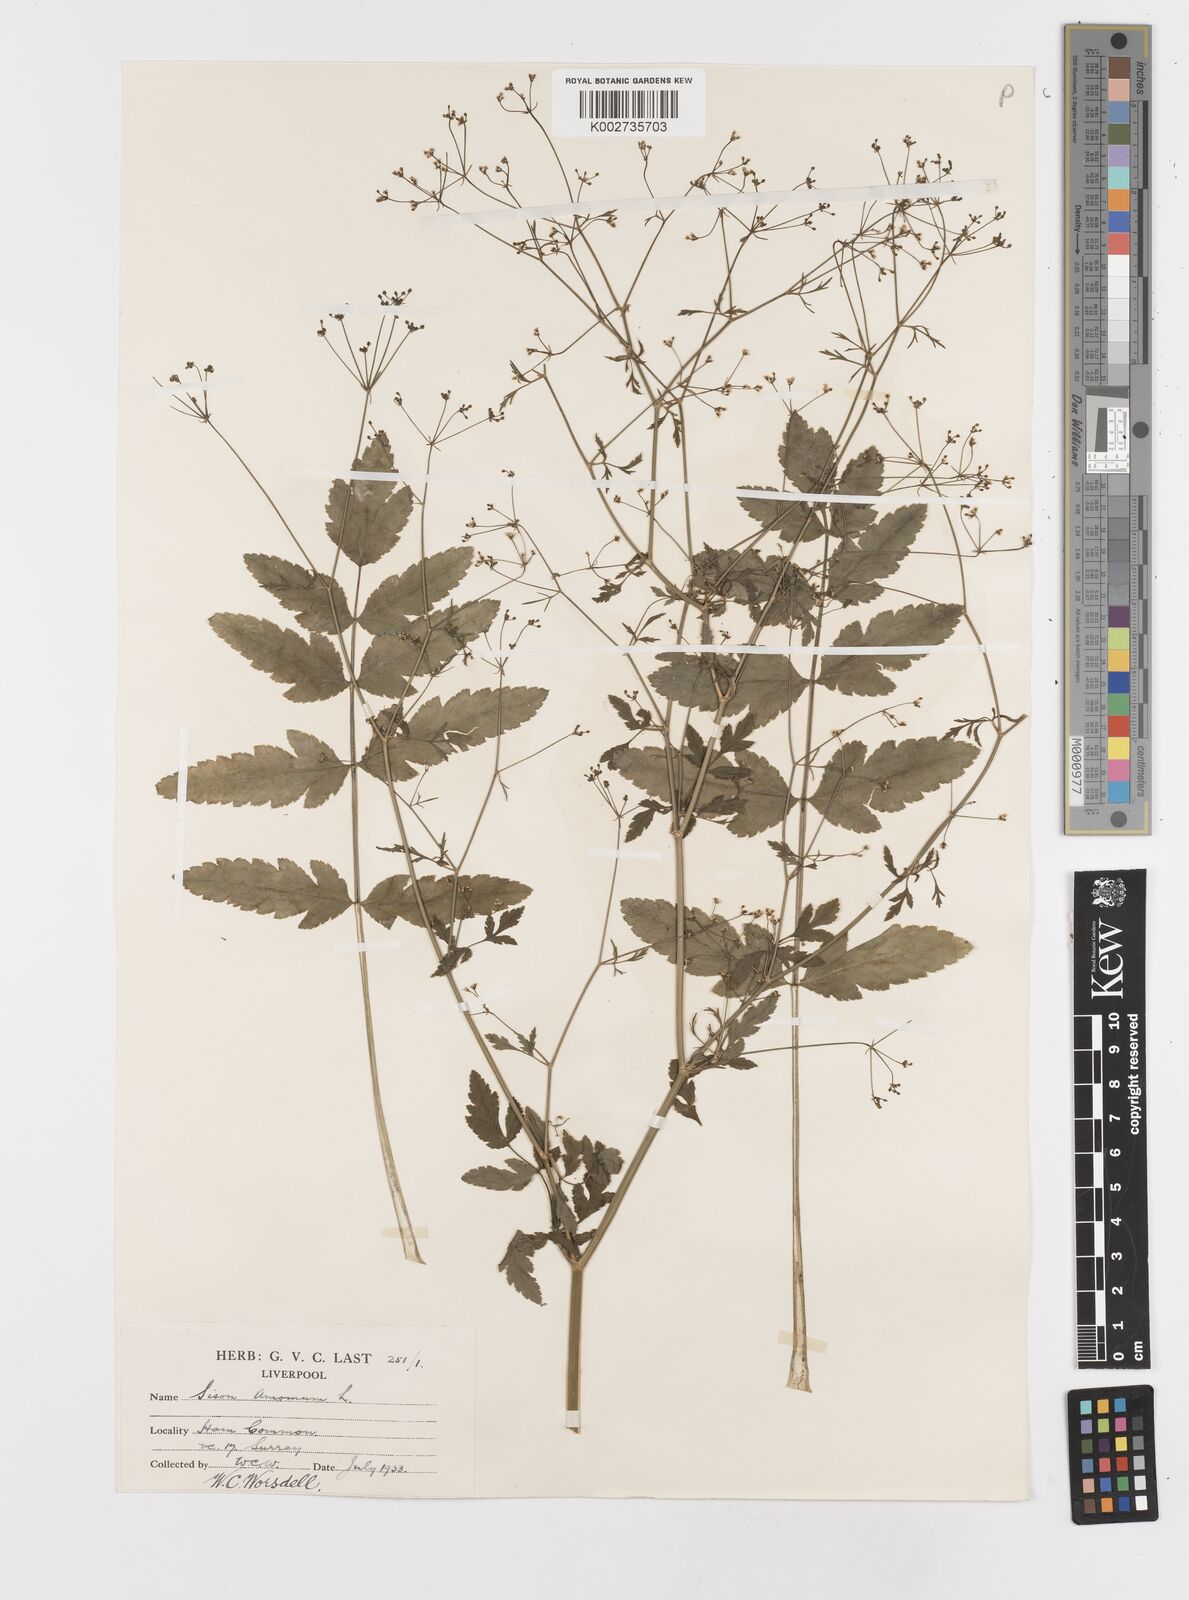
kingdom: Plantae
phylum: Tracheophyta
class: Magnoliopsida
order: Apiales
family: Apiaceae
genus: Sison
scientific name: Sison amomum
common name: Stone-parsley
